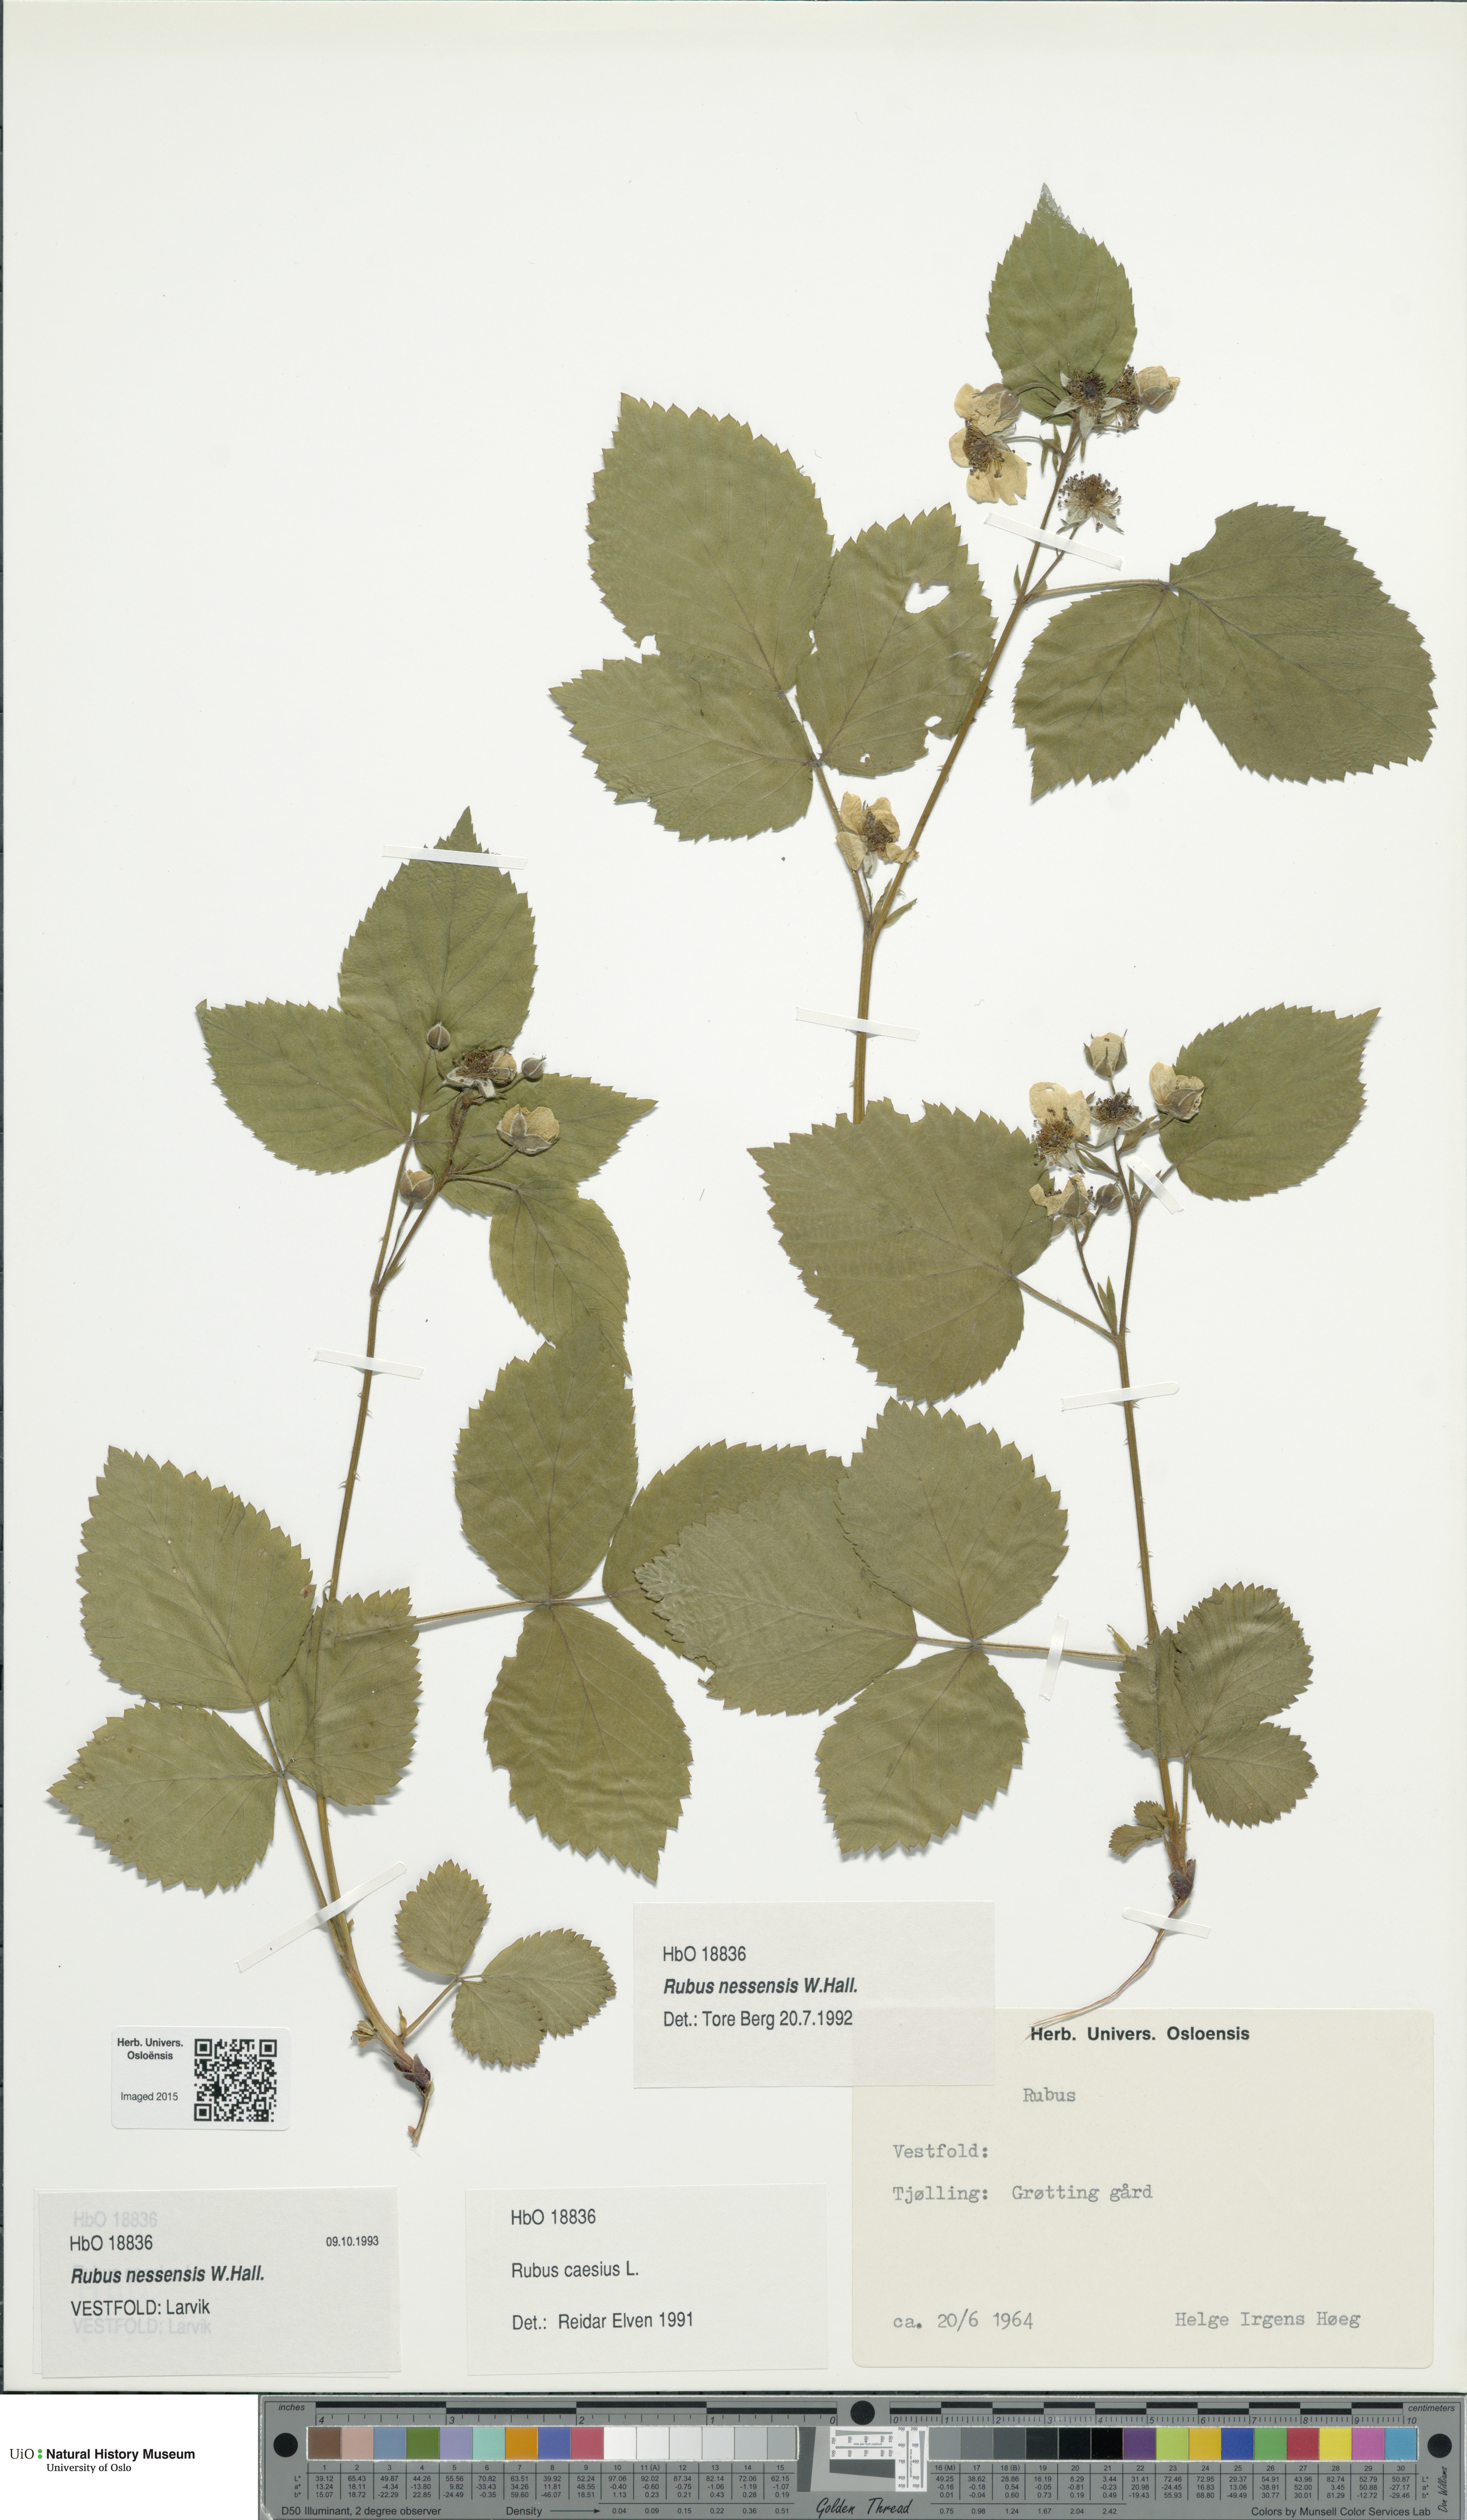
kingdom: Plantae
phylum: Tracheophyta
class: Magnoliopsida
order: Rosales
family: Rosaceae
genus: Rubus
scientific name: Rubus polonicus
